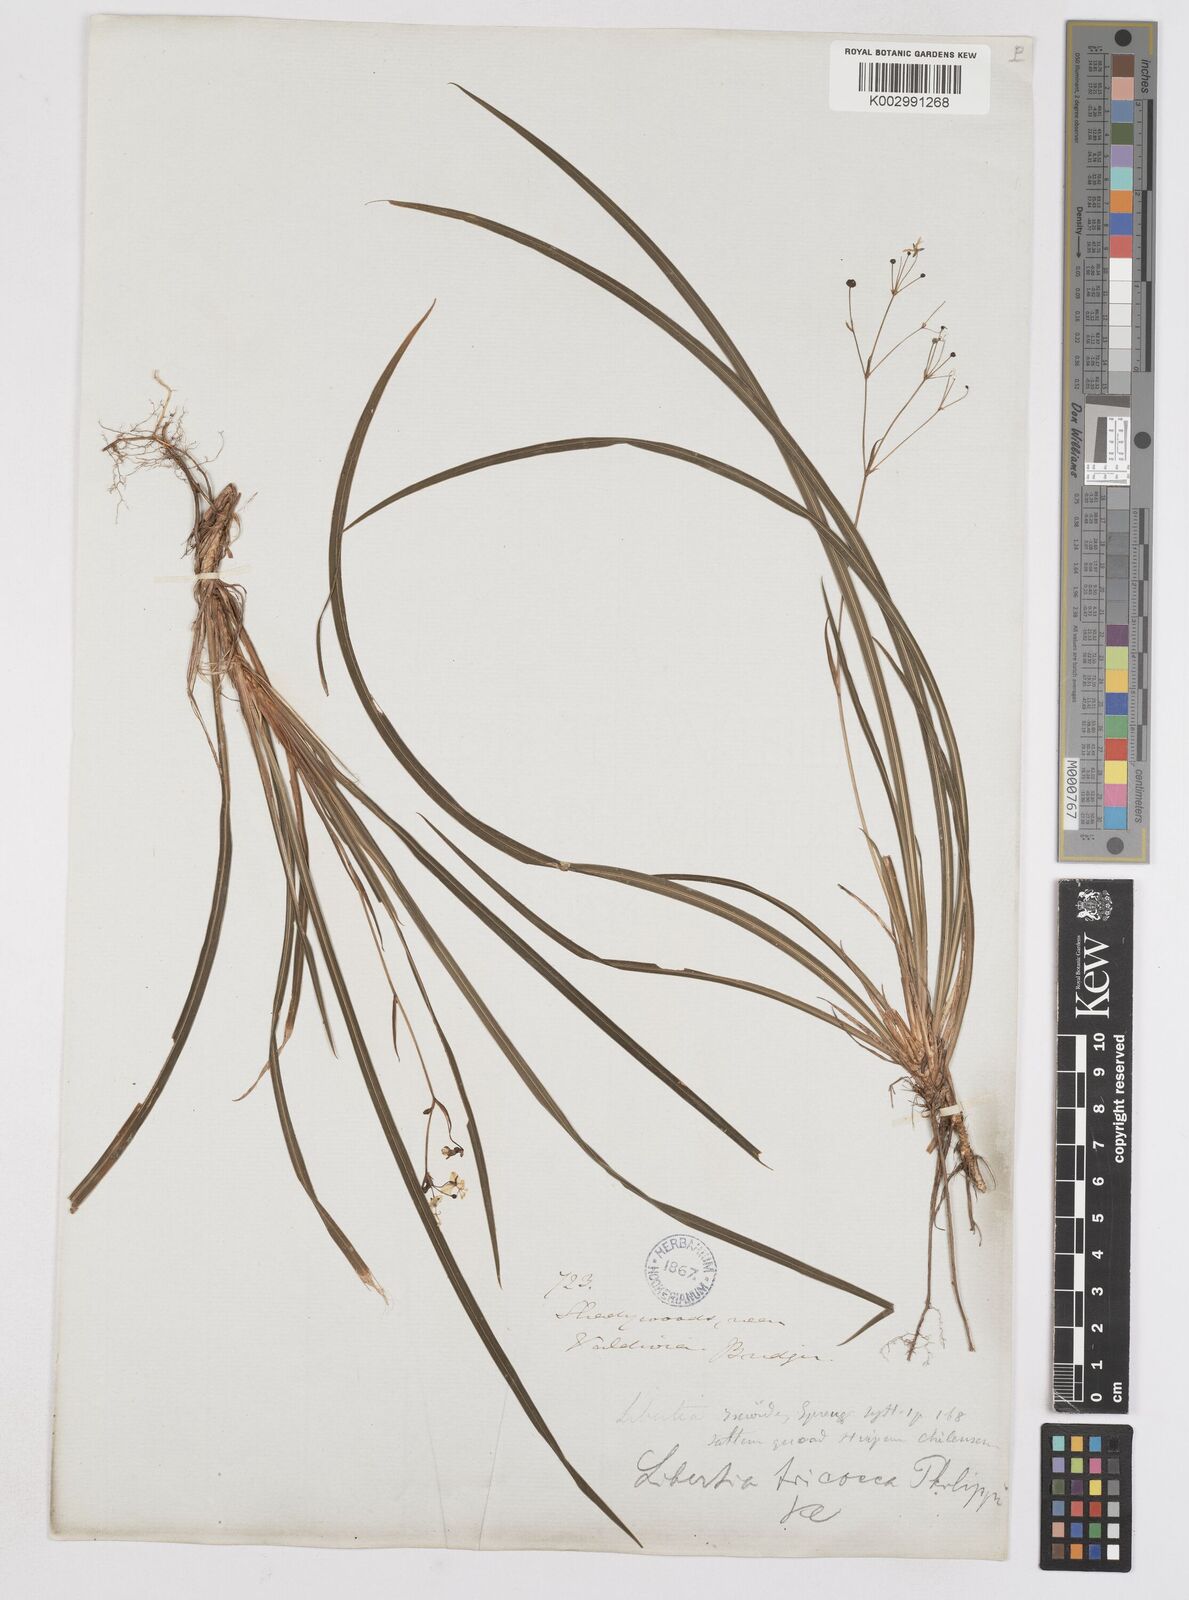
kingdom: Plantae
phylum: Tracheophyta
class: Liliopsida
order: Asparagales
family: Iridaceae
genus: Libertia
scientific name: Libertia tricocca
